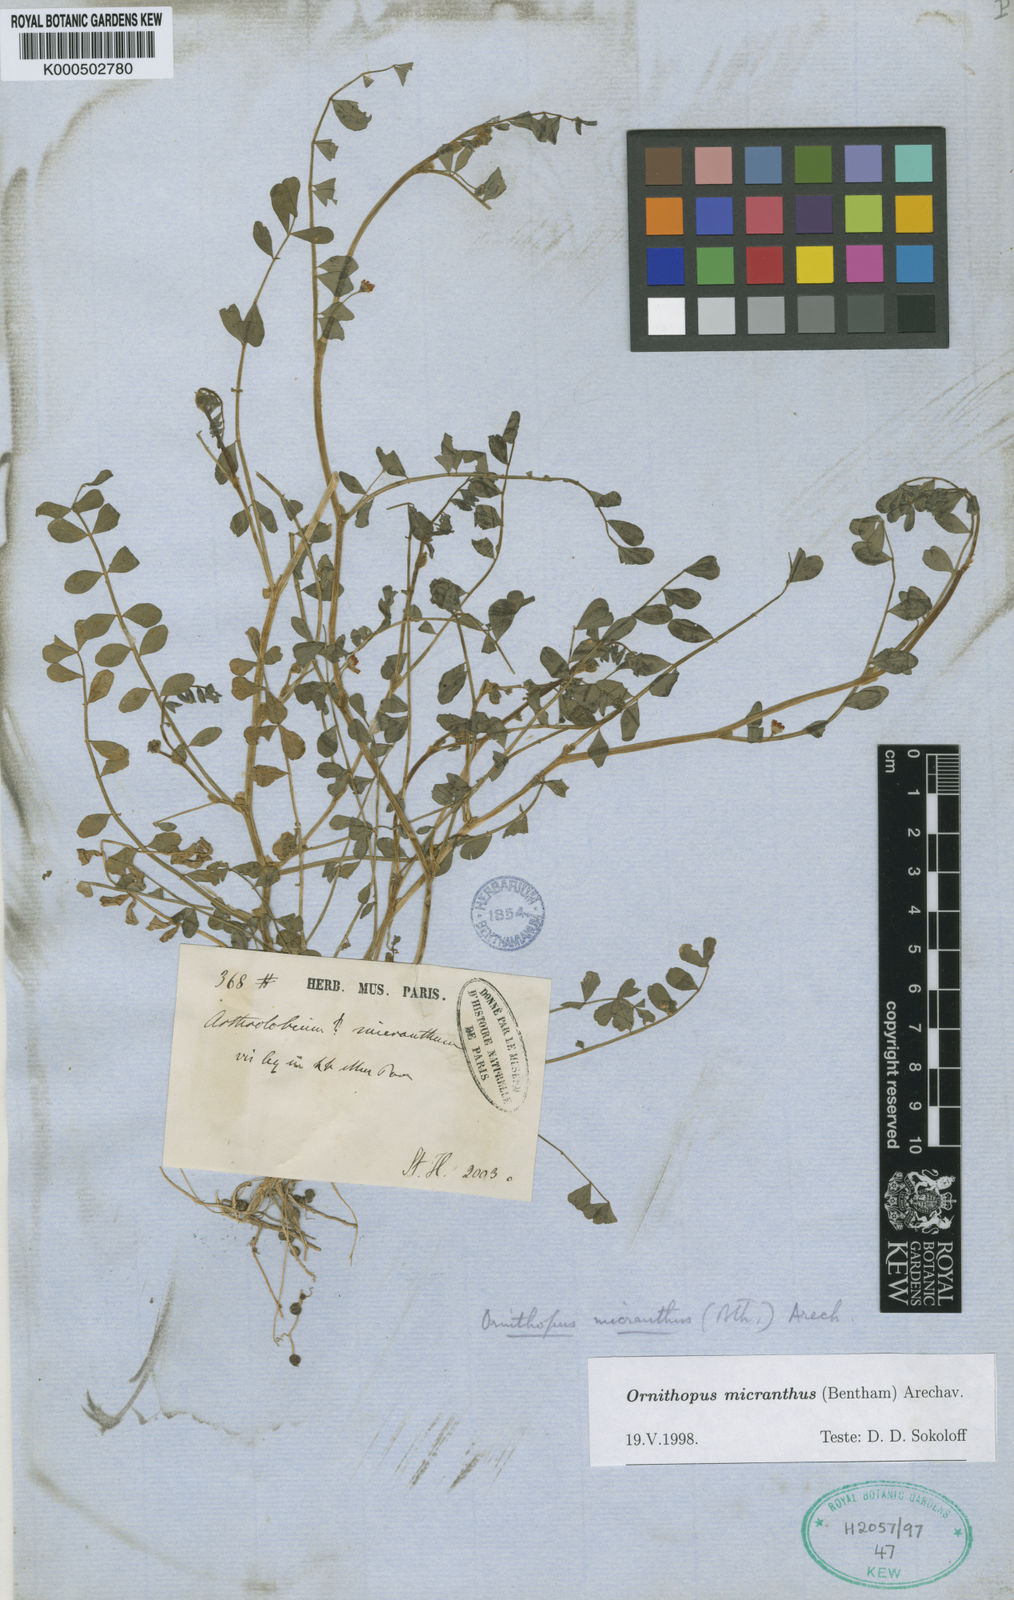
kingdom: Plantae
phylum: Tracheophyta
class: Magnoliopsida
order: Fabales
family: Fabaceae
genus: Ornithopus
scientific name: Ornithopus micranthus
